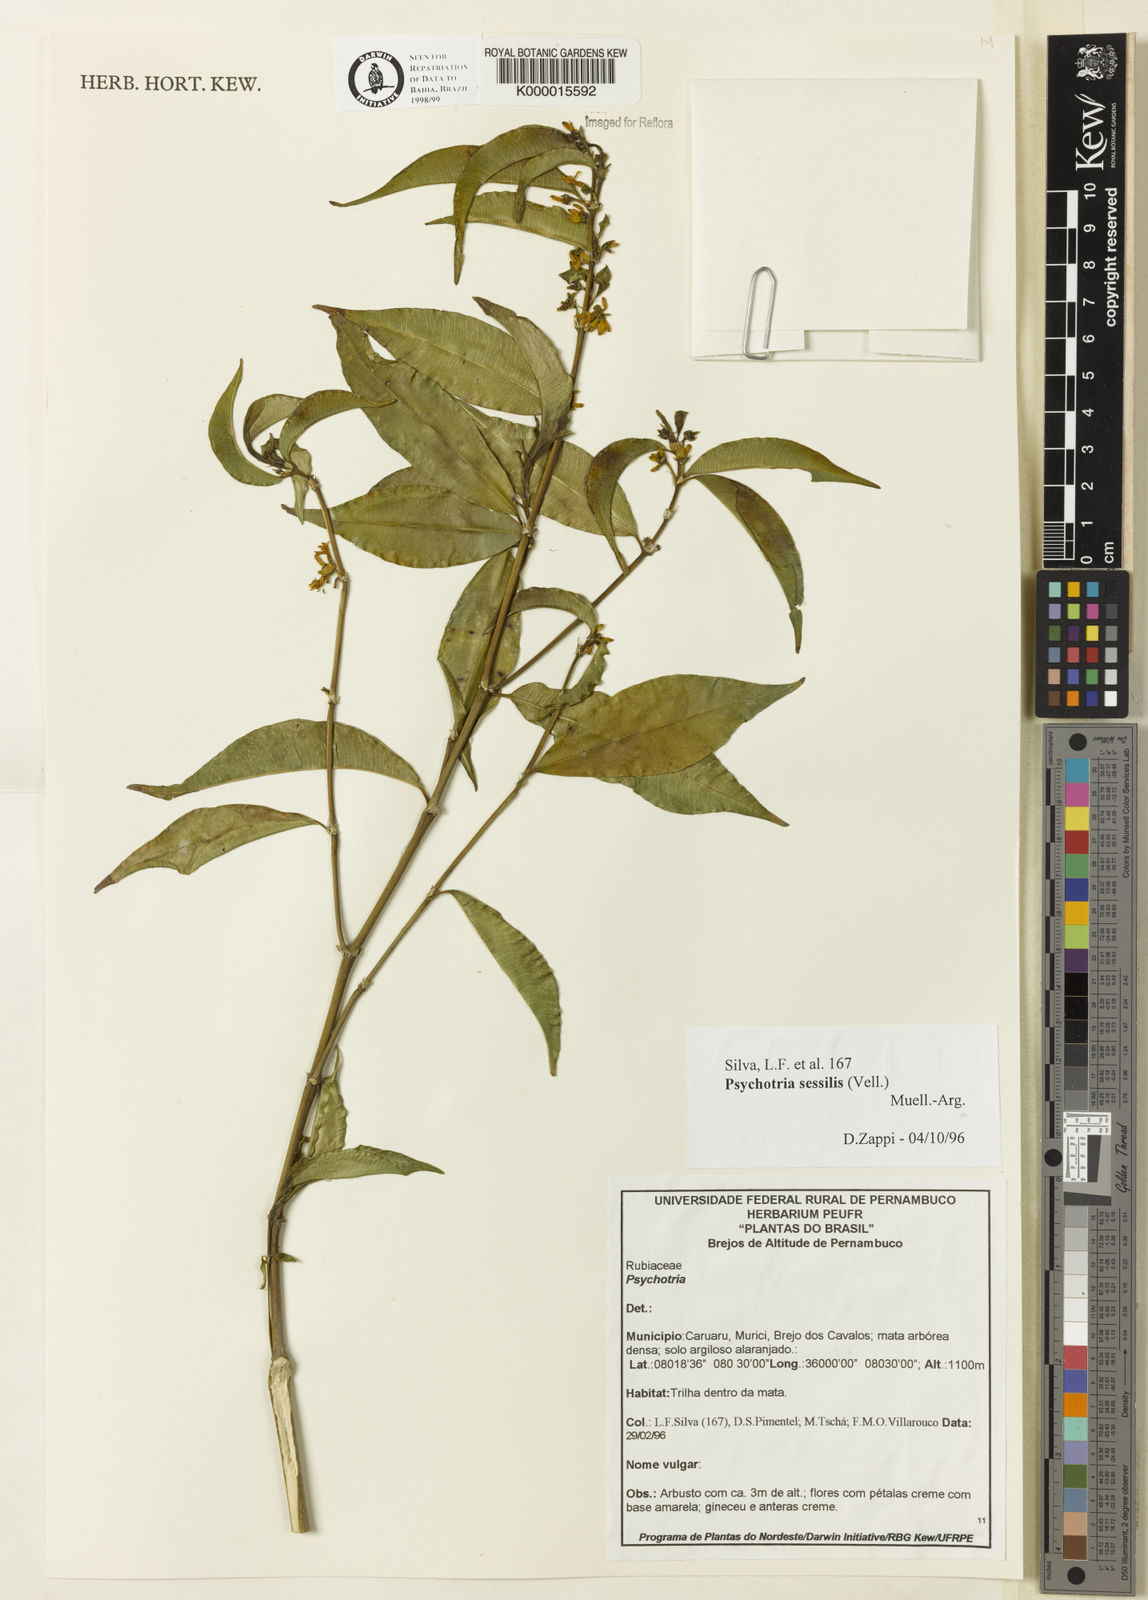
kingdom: Plantae
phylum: Tracheophyta
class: Magnoliopsida
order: Gentianales
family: Rubiaceae
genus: Psychotria
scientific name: Psychotria
